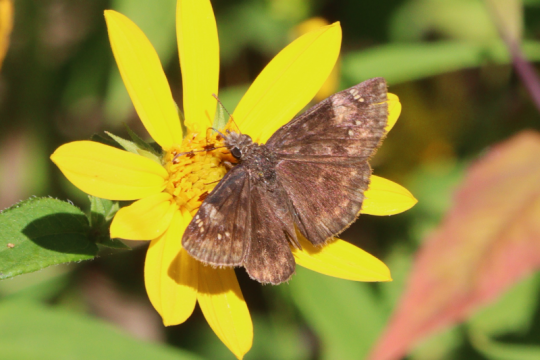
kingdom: Animalia
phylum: Arthropoda
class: Insecta
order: Lepidoptera
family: Hesperiidae
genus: Gesta
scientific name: Gesta
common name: Wild Indigo Duskywing
